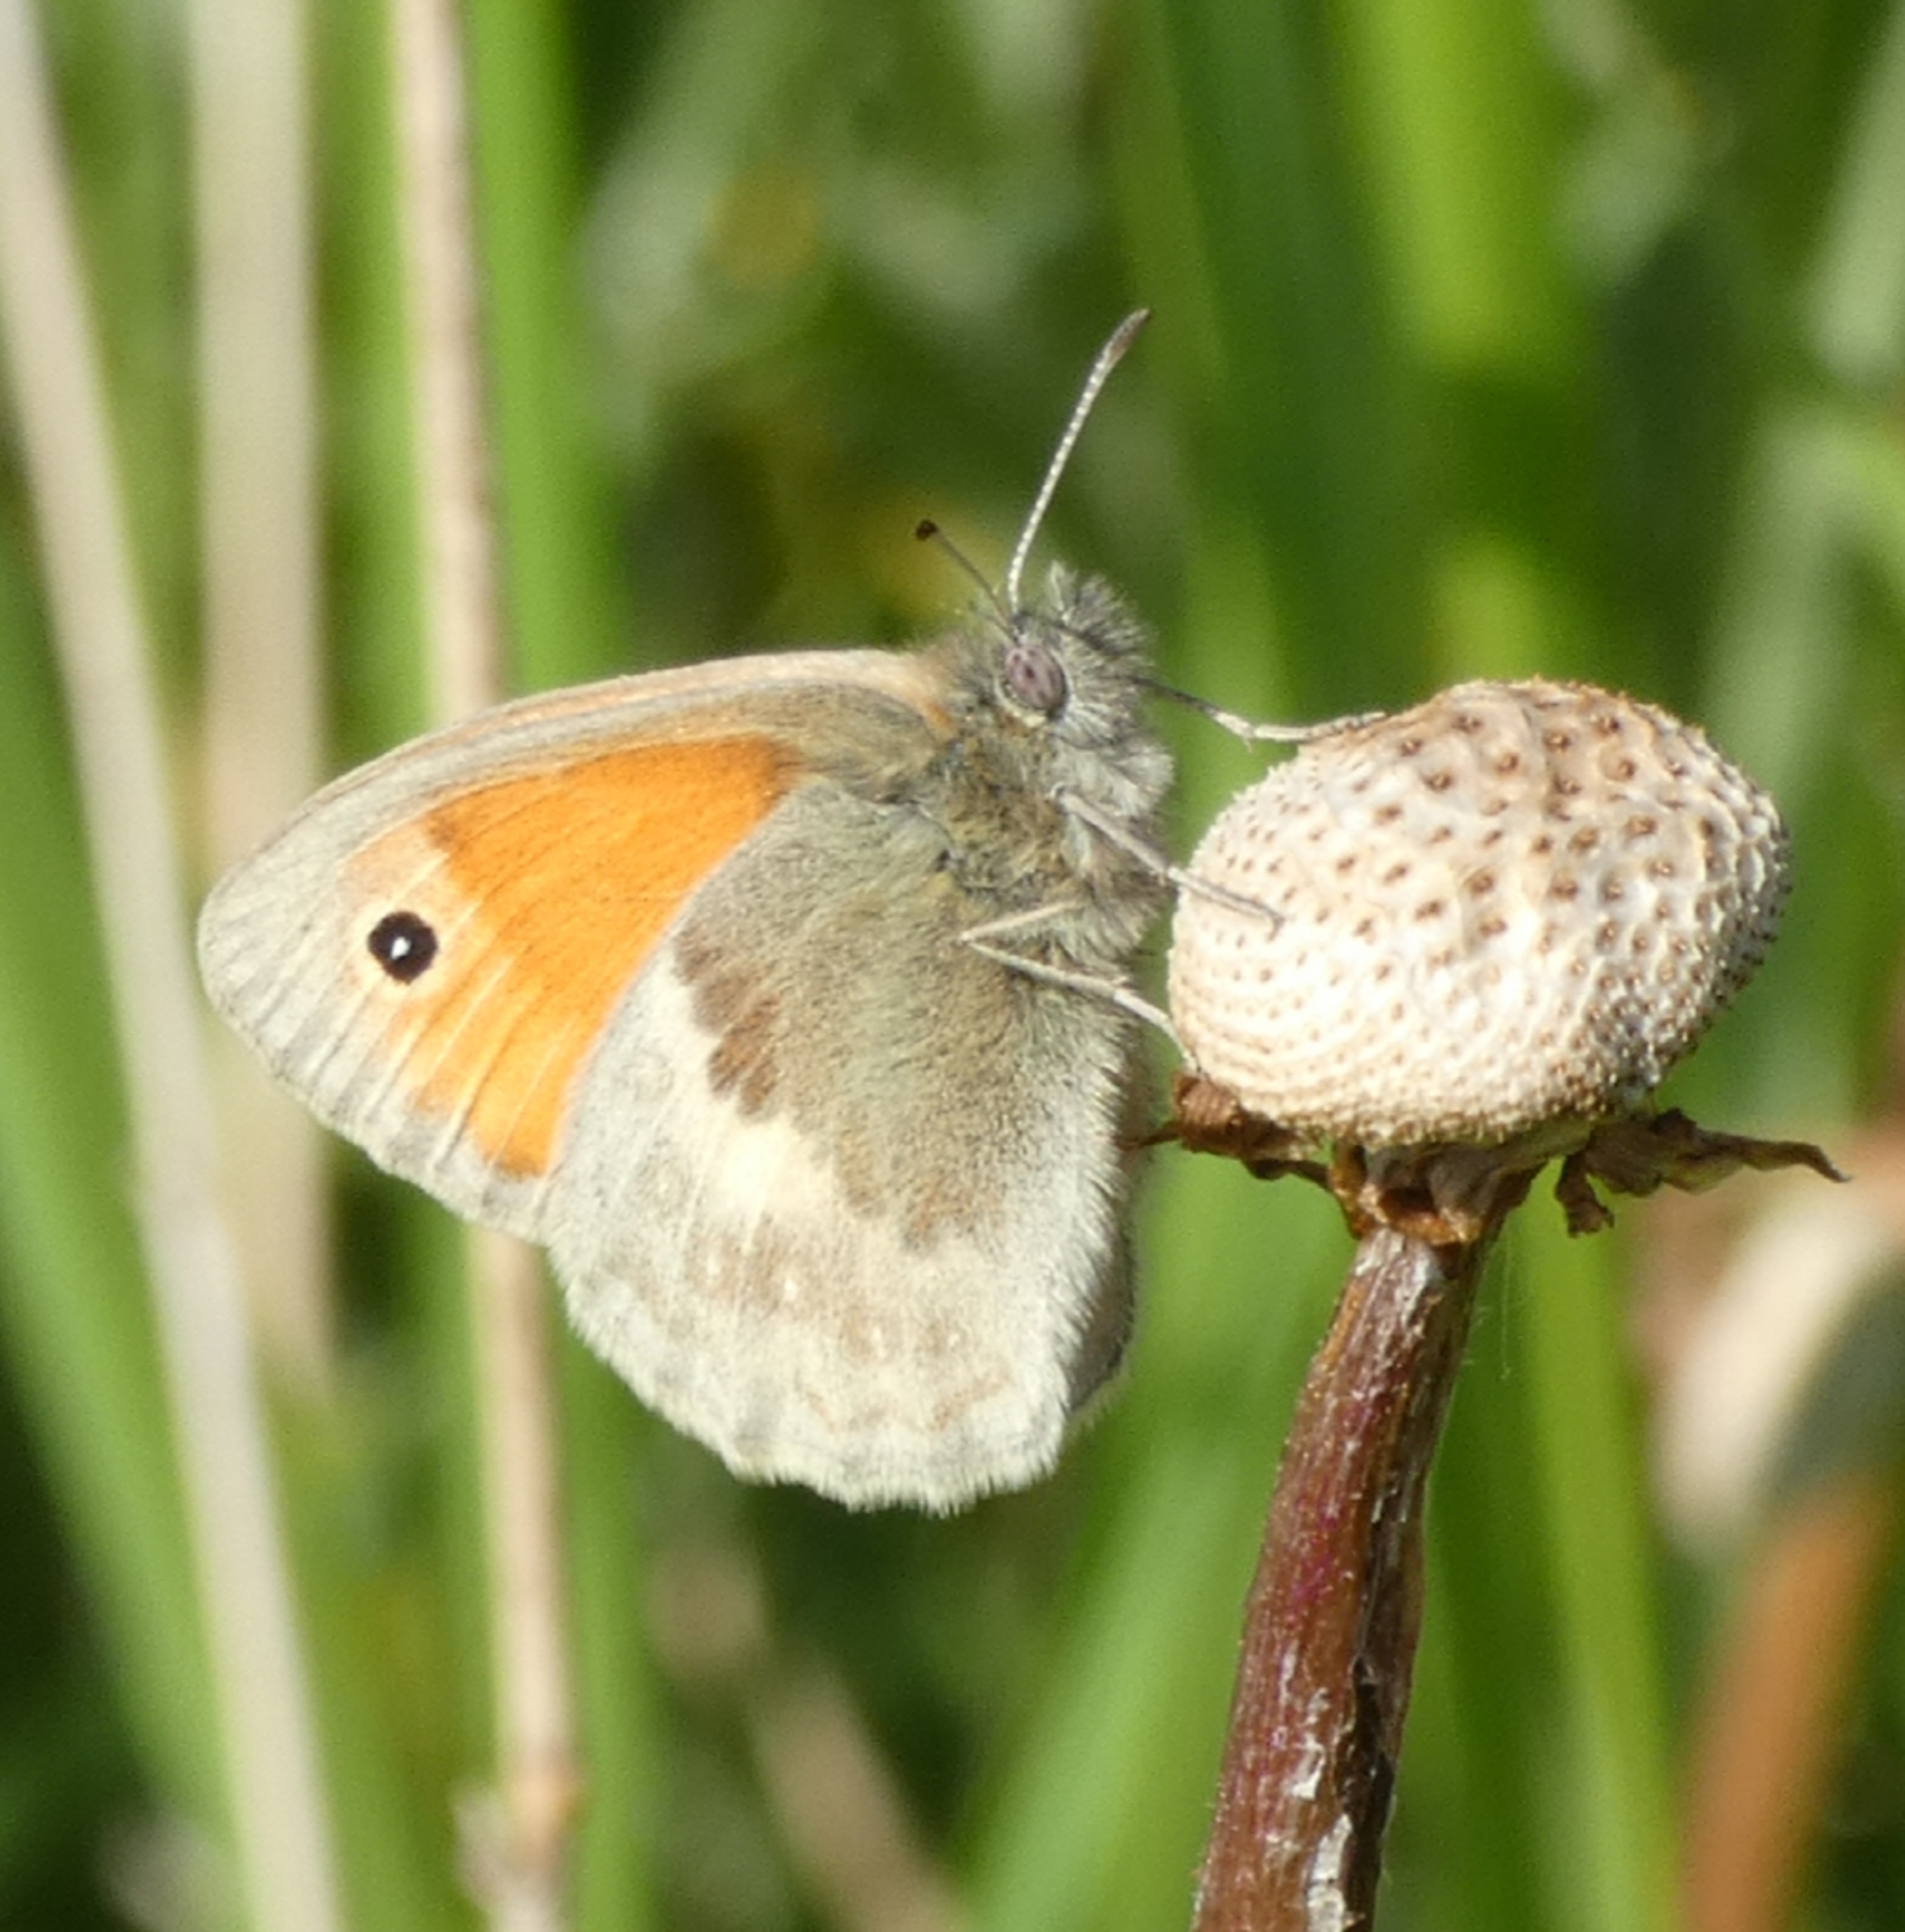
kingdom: Animalia
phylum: Arthropoda
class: Insecta
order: Lepidoptera
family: Nymphalidae
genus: Coenonympha
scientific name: Coenonympha pamphilus
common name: Okkergul randøje
